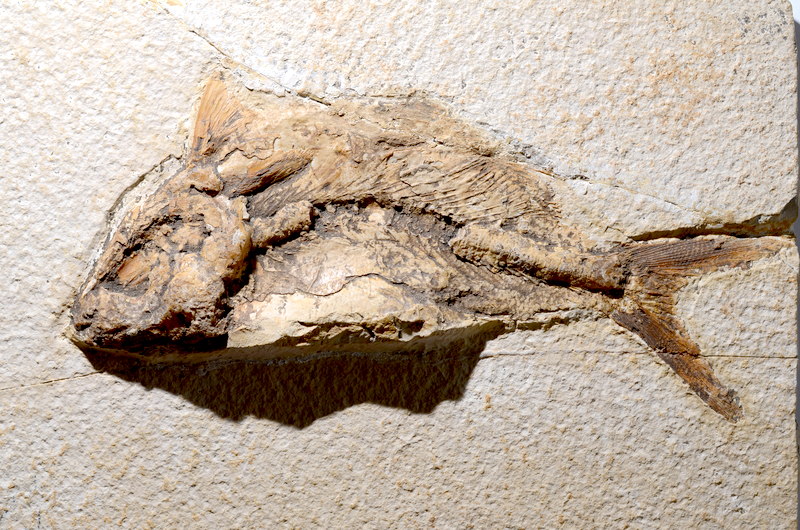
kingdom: Animalia
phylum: Chordata
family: Eurycormidae
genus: Eurycormus
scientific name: Eurycormus speciosus
